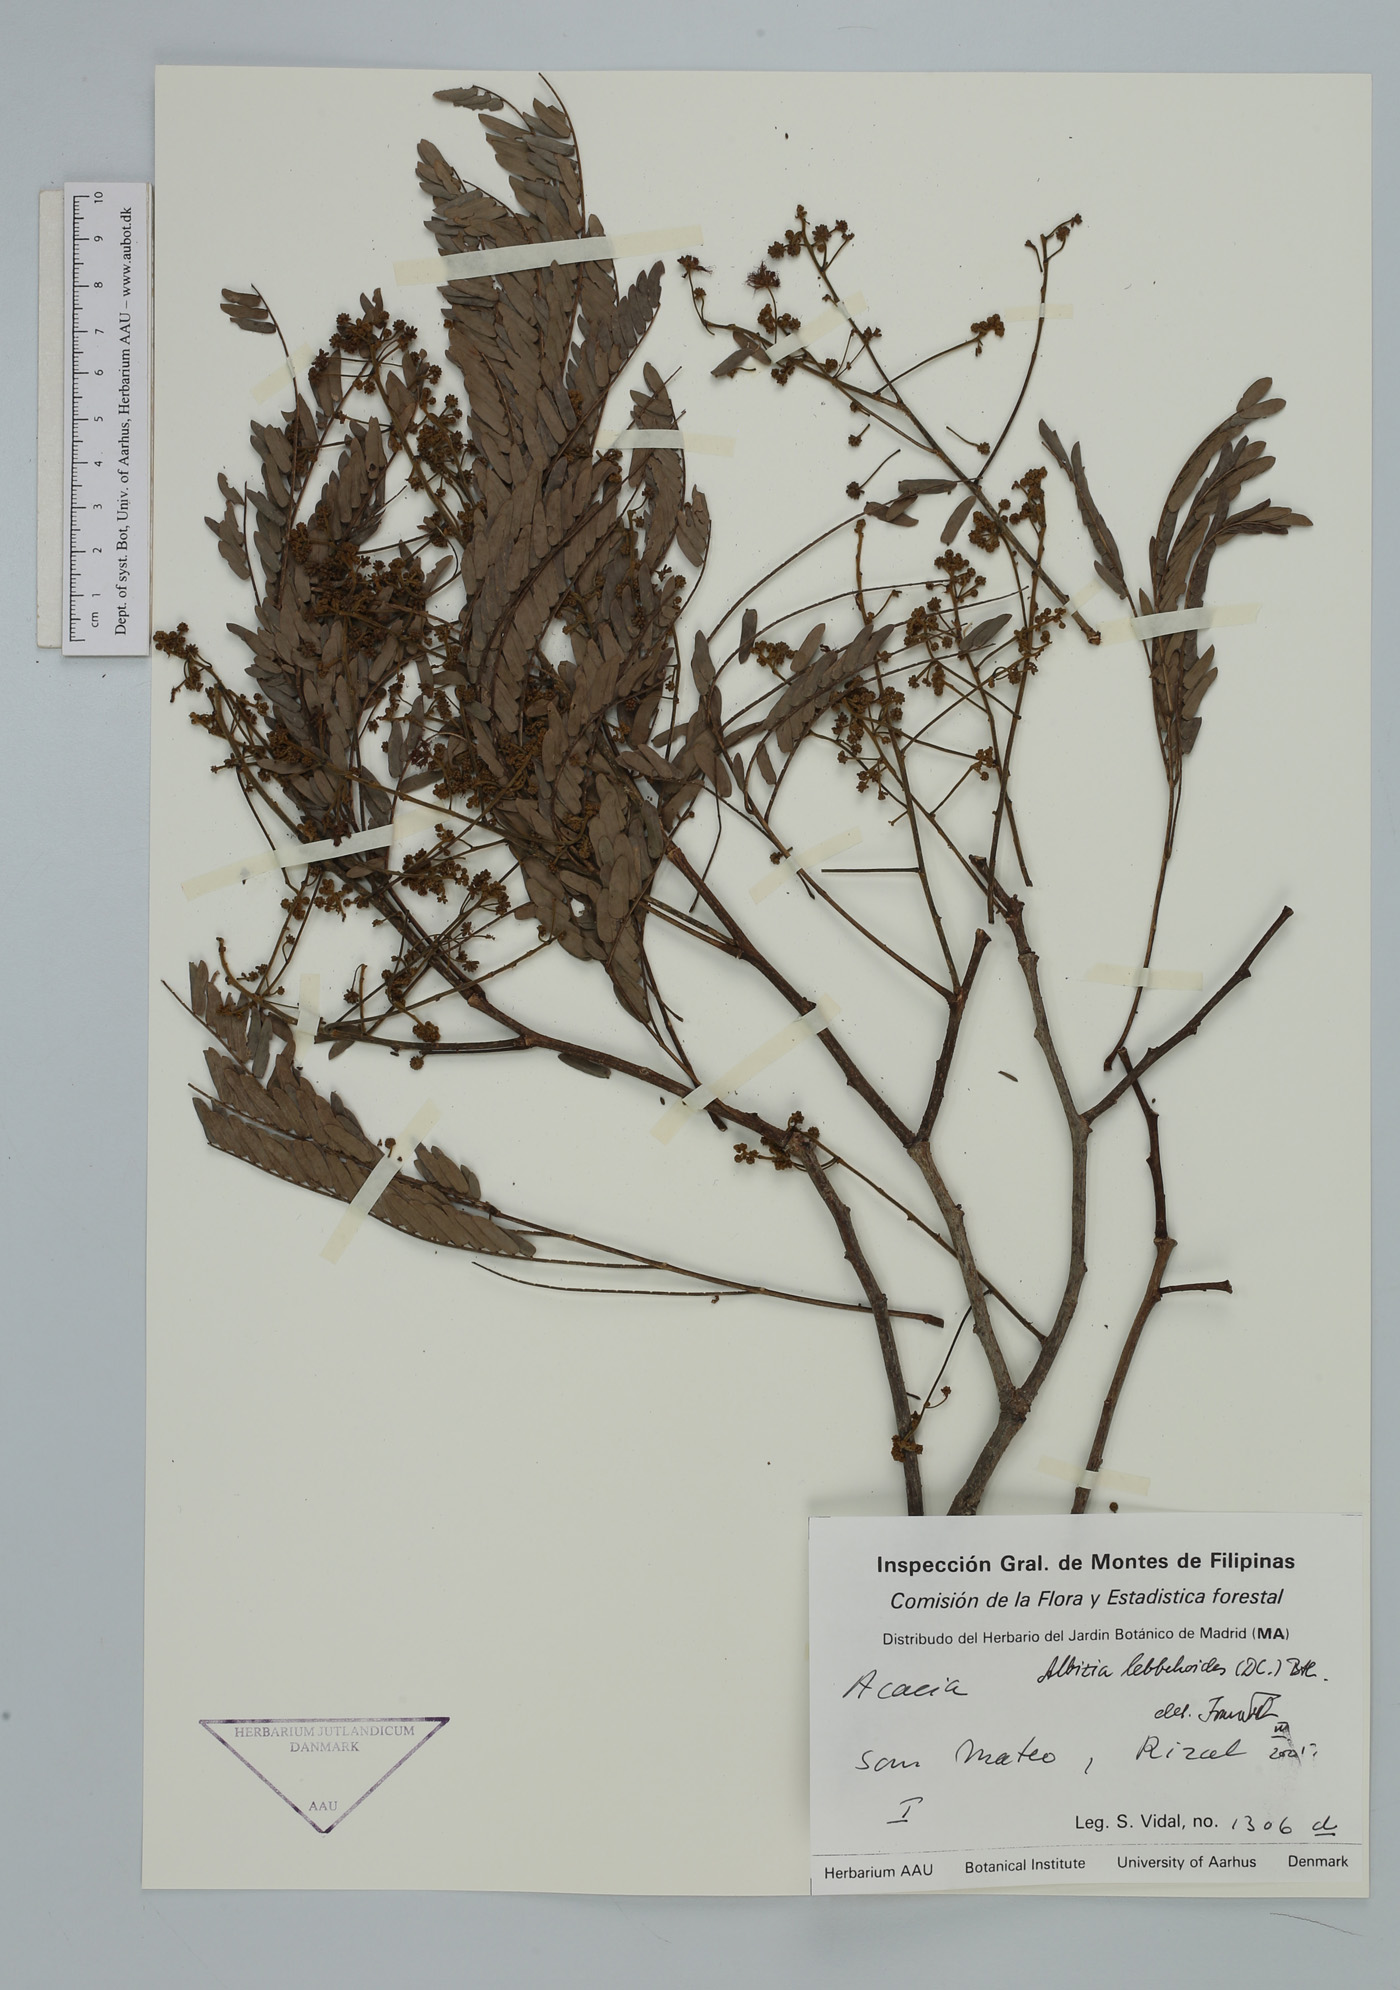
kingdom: Plantae
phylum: Tracheophyta
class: Magnoliopsida
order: Fabales
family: Fabaceae
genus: Albizia
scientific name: Albizia lebbekoides
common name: Indian albizia
